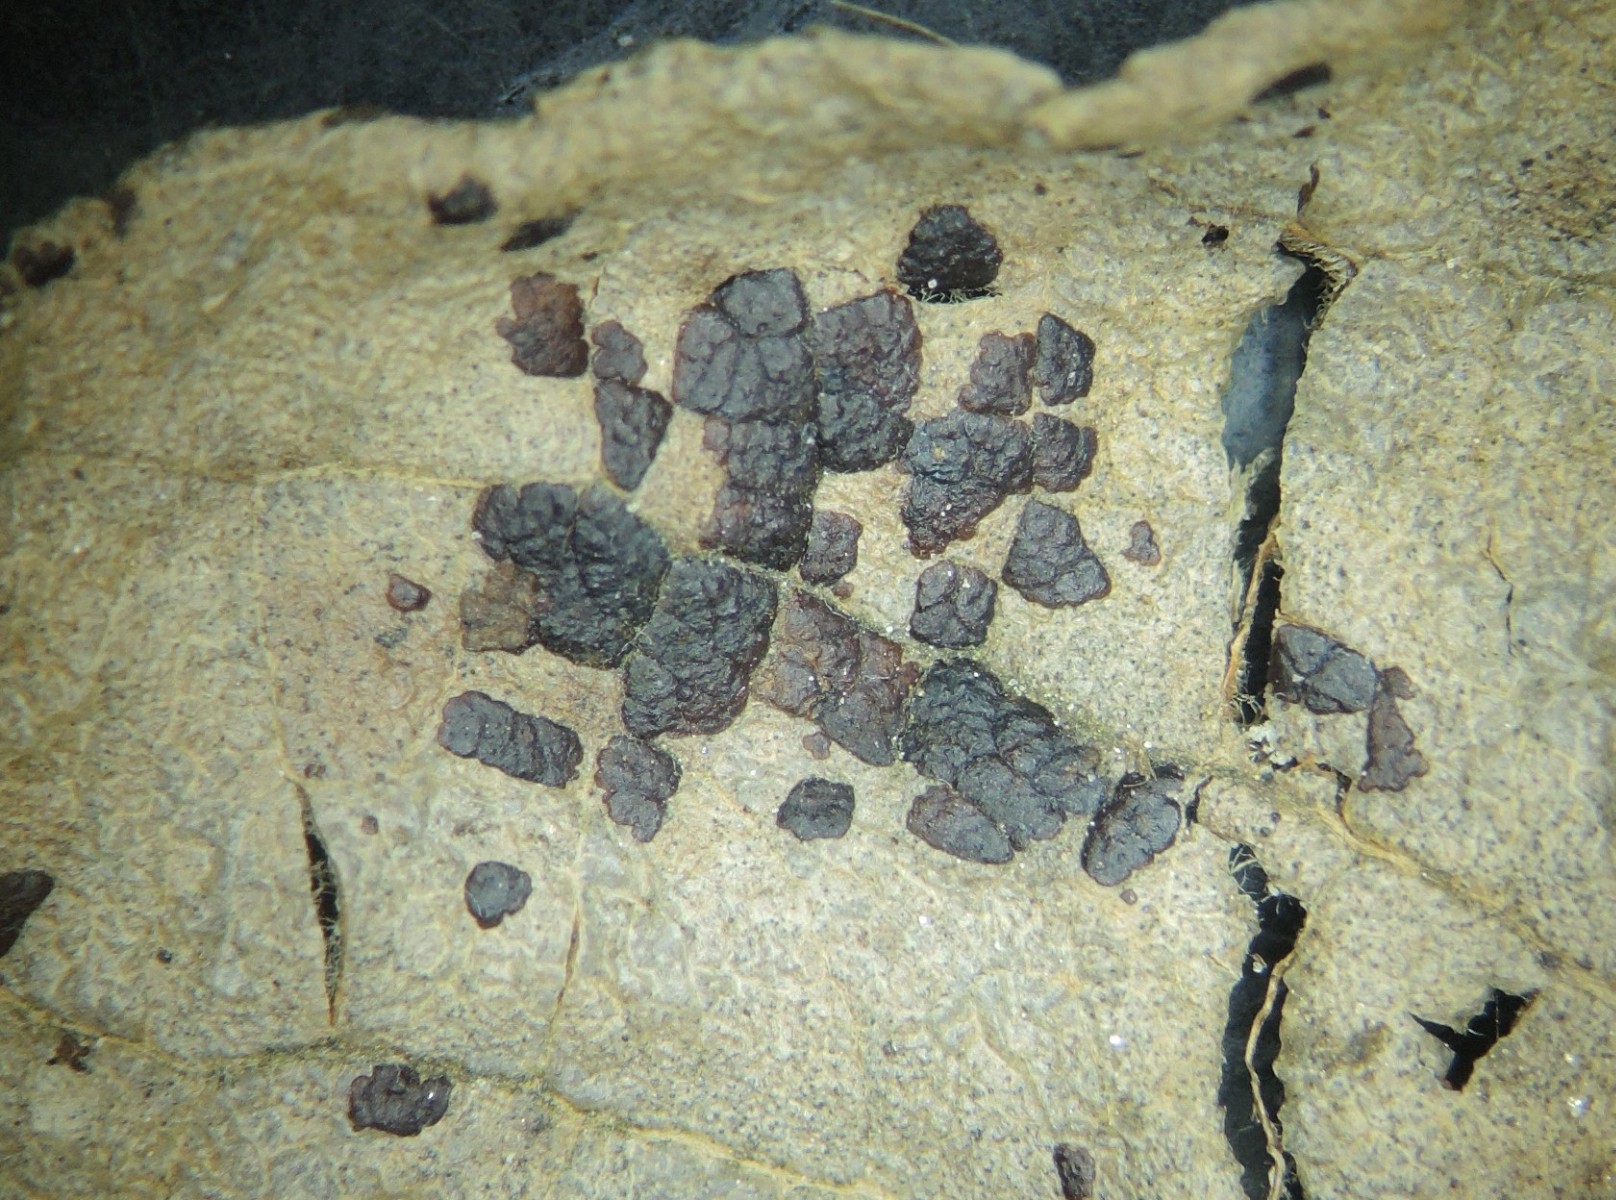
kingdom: Fungi
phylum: Ascomycota
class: Leotiomycetes
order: Rhytismatales
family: Rhytismataceae
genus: Rhytisma
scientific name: Rhytisma salicinum
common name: pile-rynkeplet
